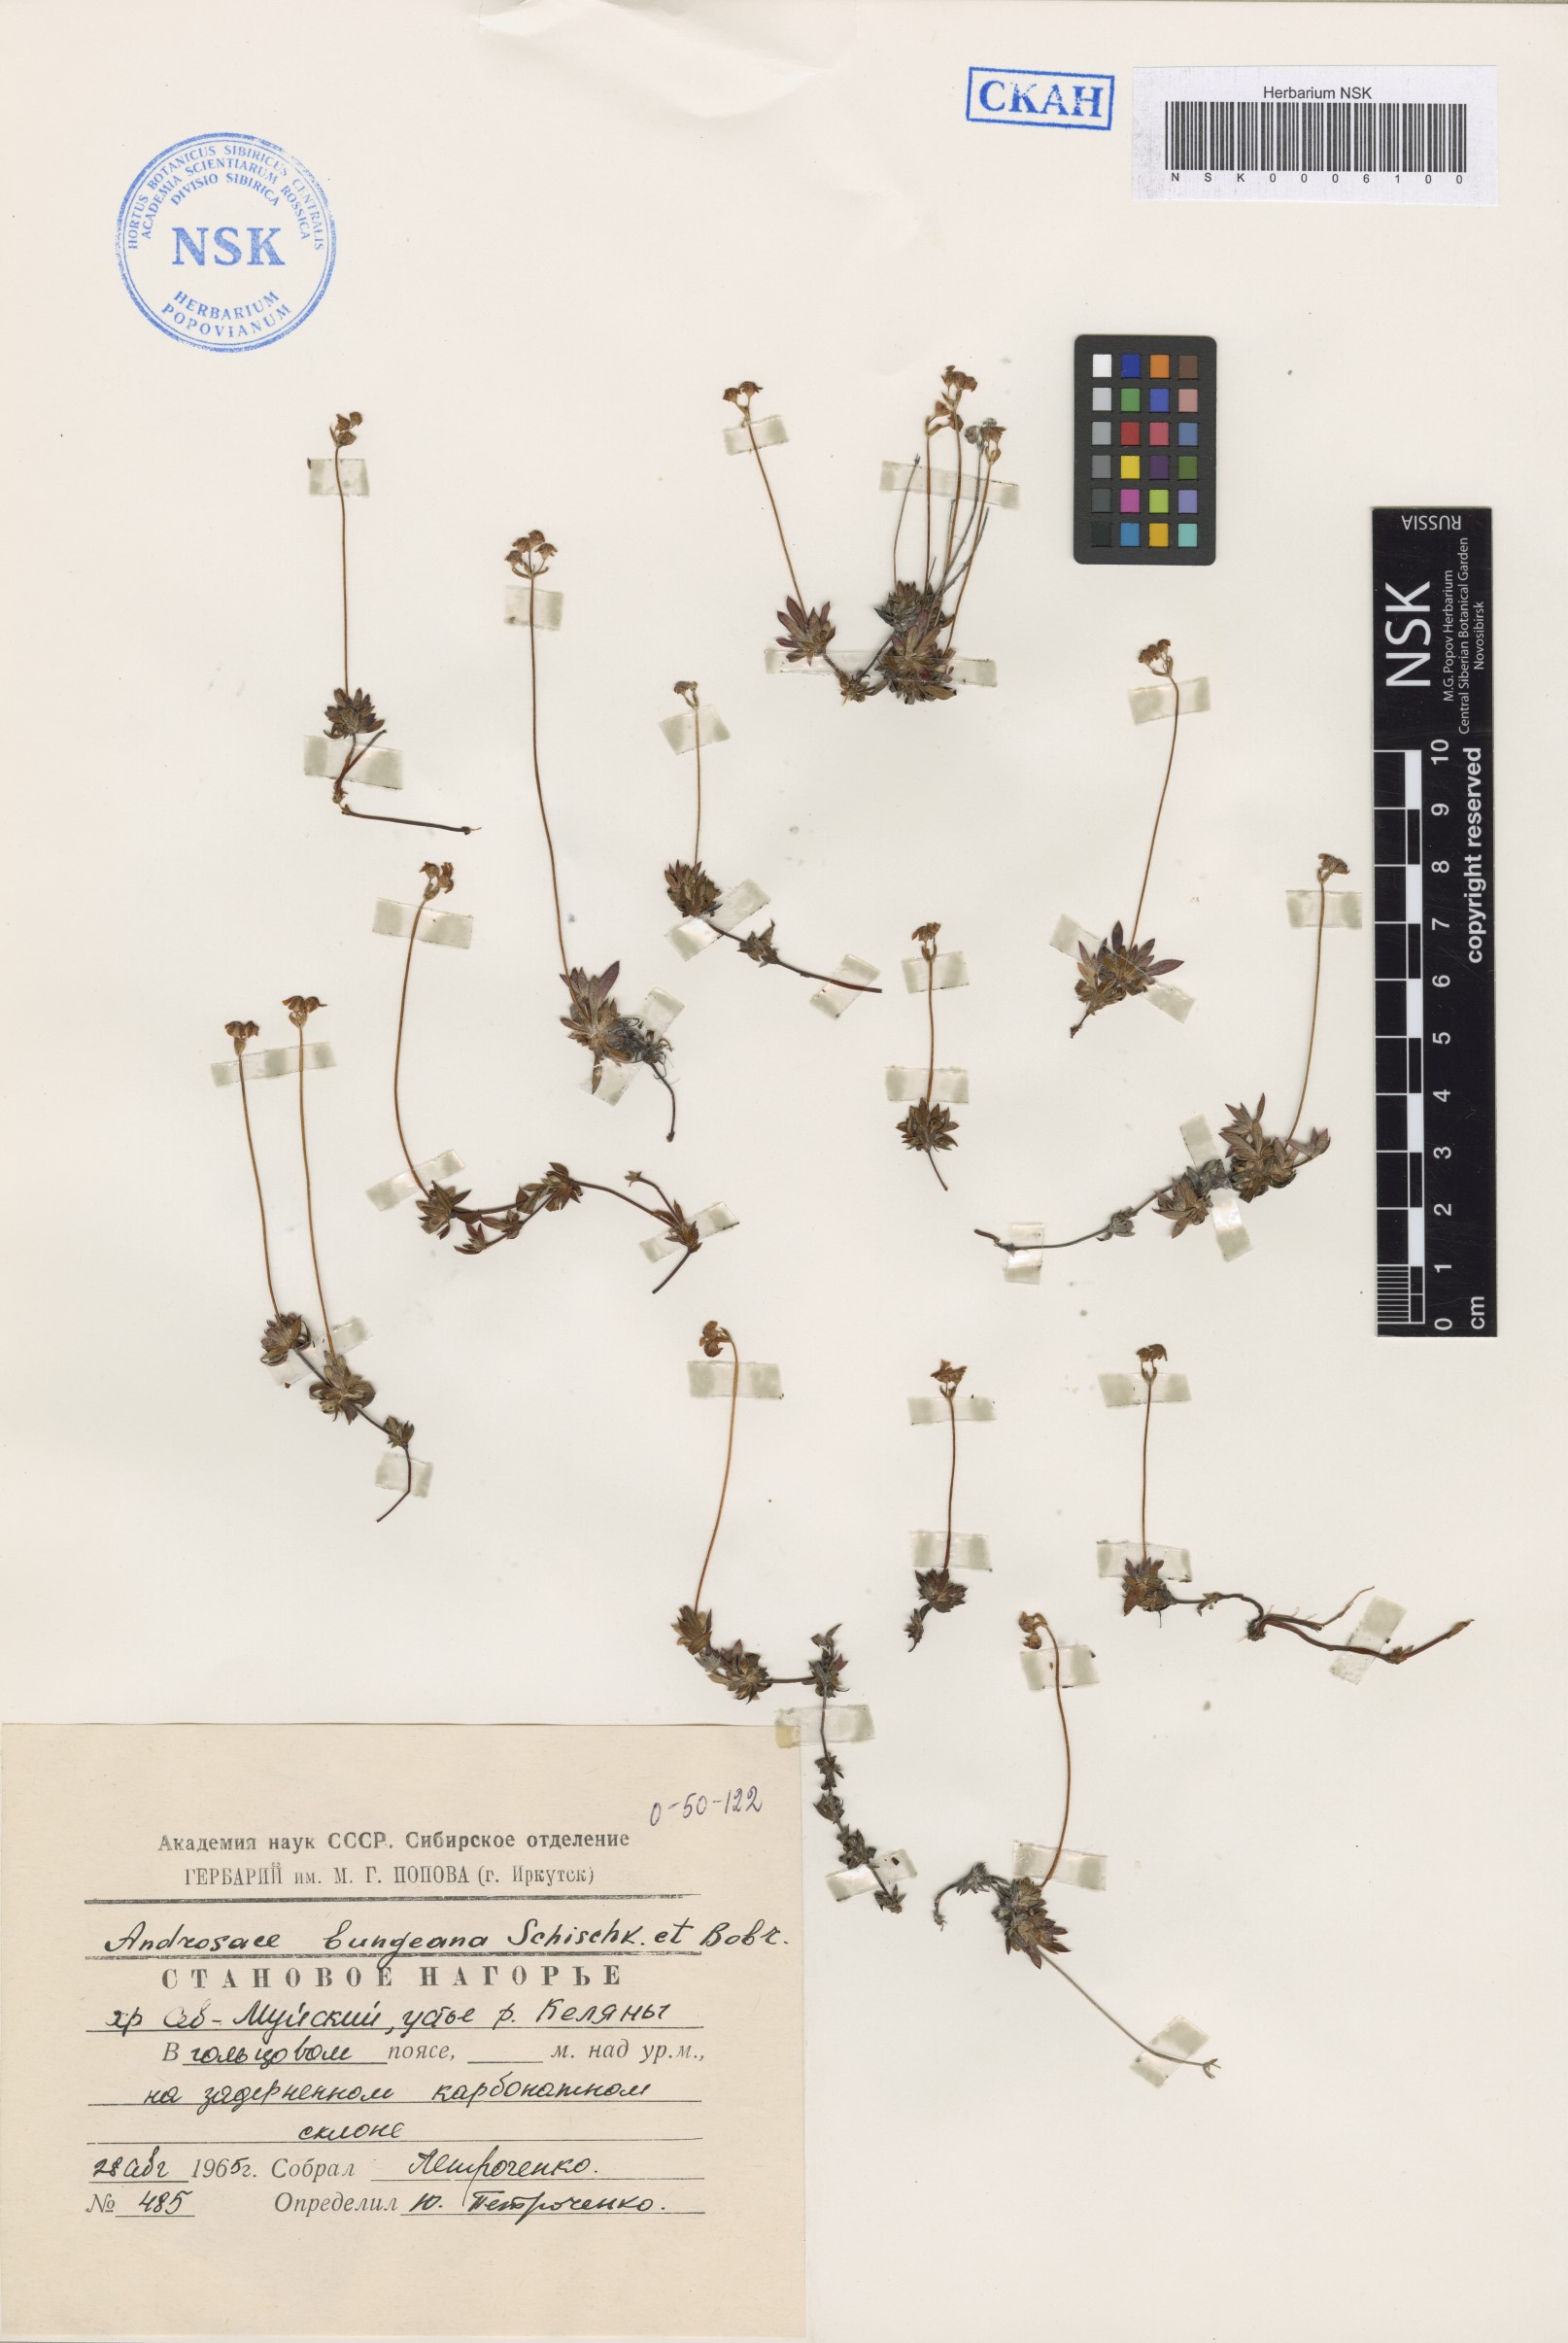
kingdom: Plantae
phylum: Tracheophyta
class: Magnoliopsida
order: Ericales
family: Primulaceae
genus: Androsace
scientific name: Androsace bungeana
